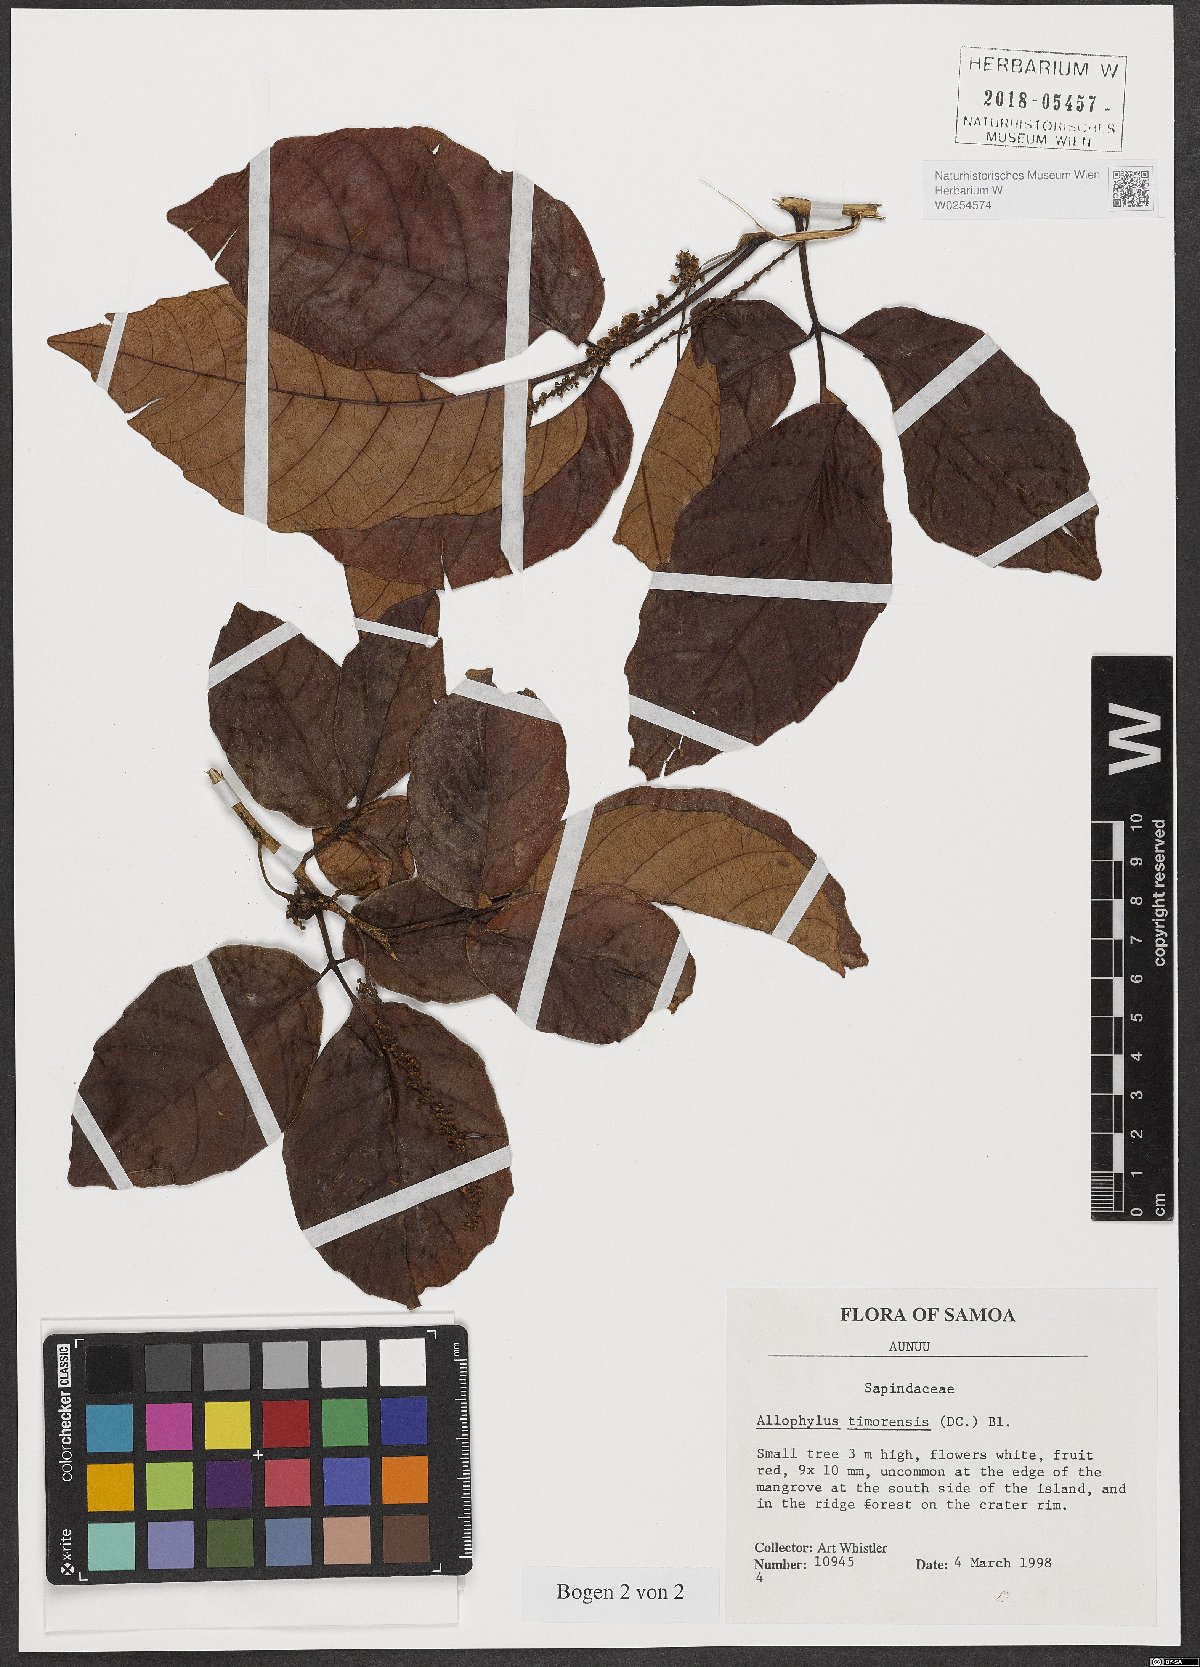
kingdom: Plantae
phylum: Tracheophyta
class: Magnoliopsida
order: Sapindales
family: Sapindaceae
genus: Allophylus
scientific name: Allophylus timorensis
